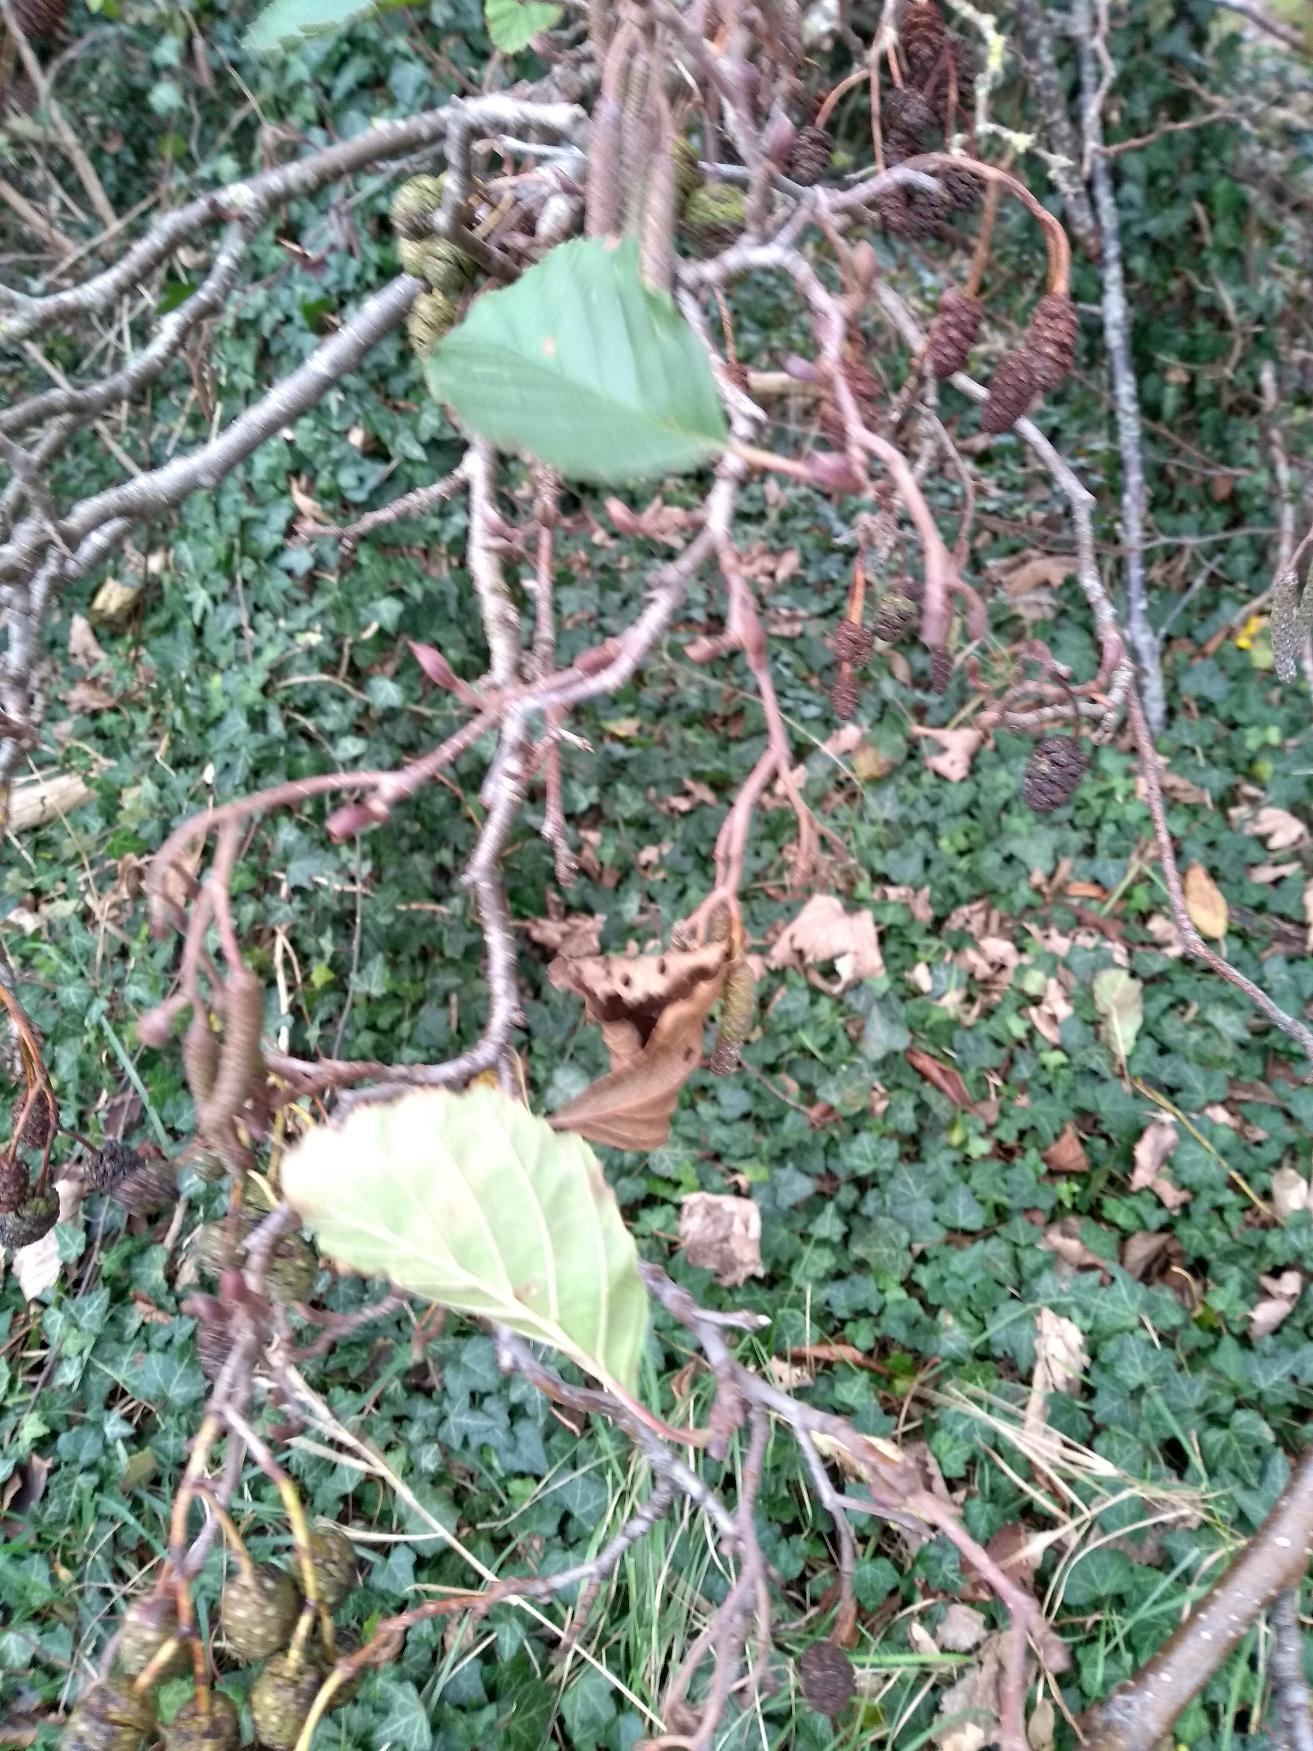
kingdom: Plantae
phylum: Tracheophyta
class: Magnoliopsida
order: Fagales
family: Betulaceae
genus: Alnus
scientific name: Alnus glutinosa
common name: Rød-el
